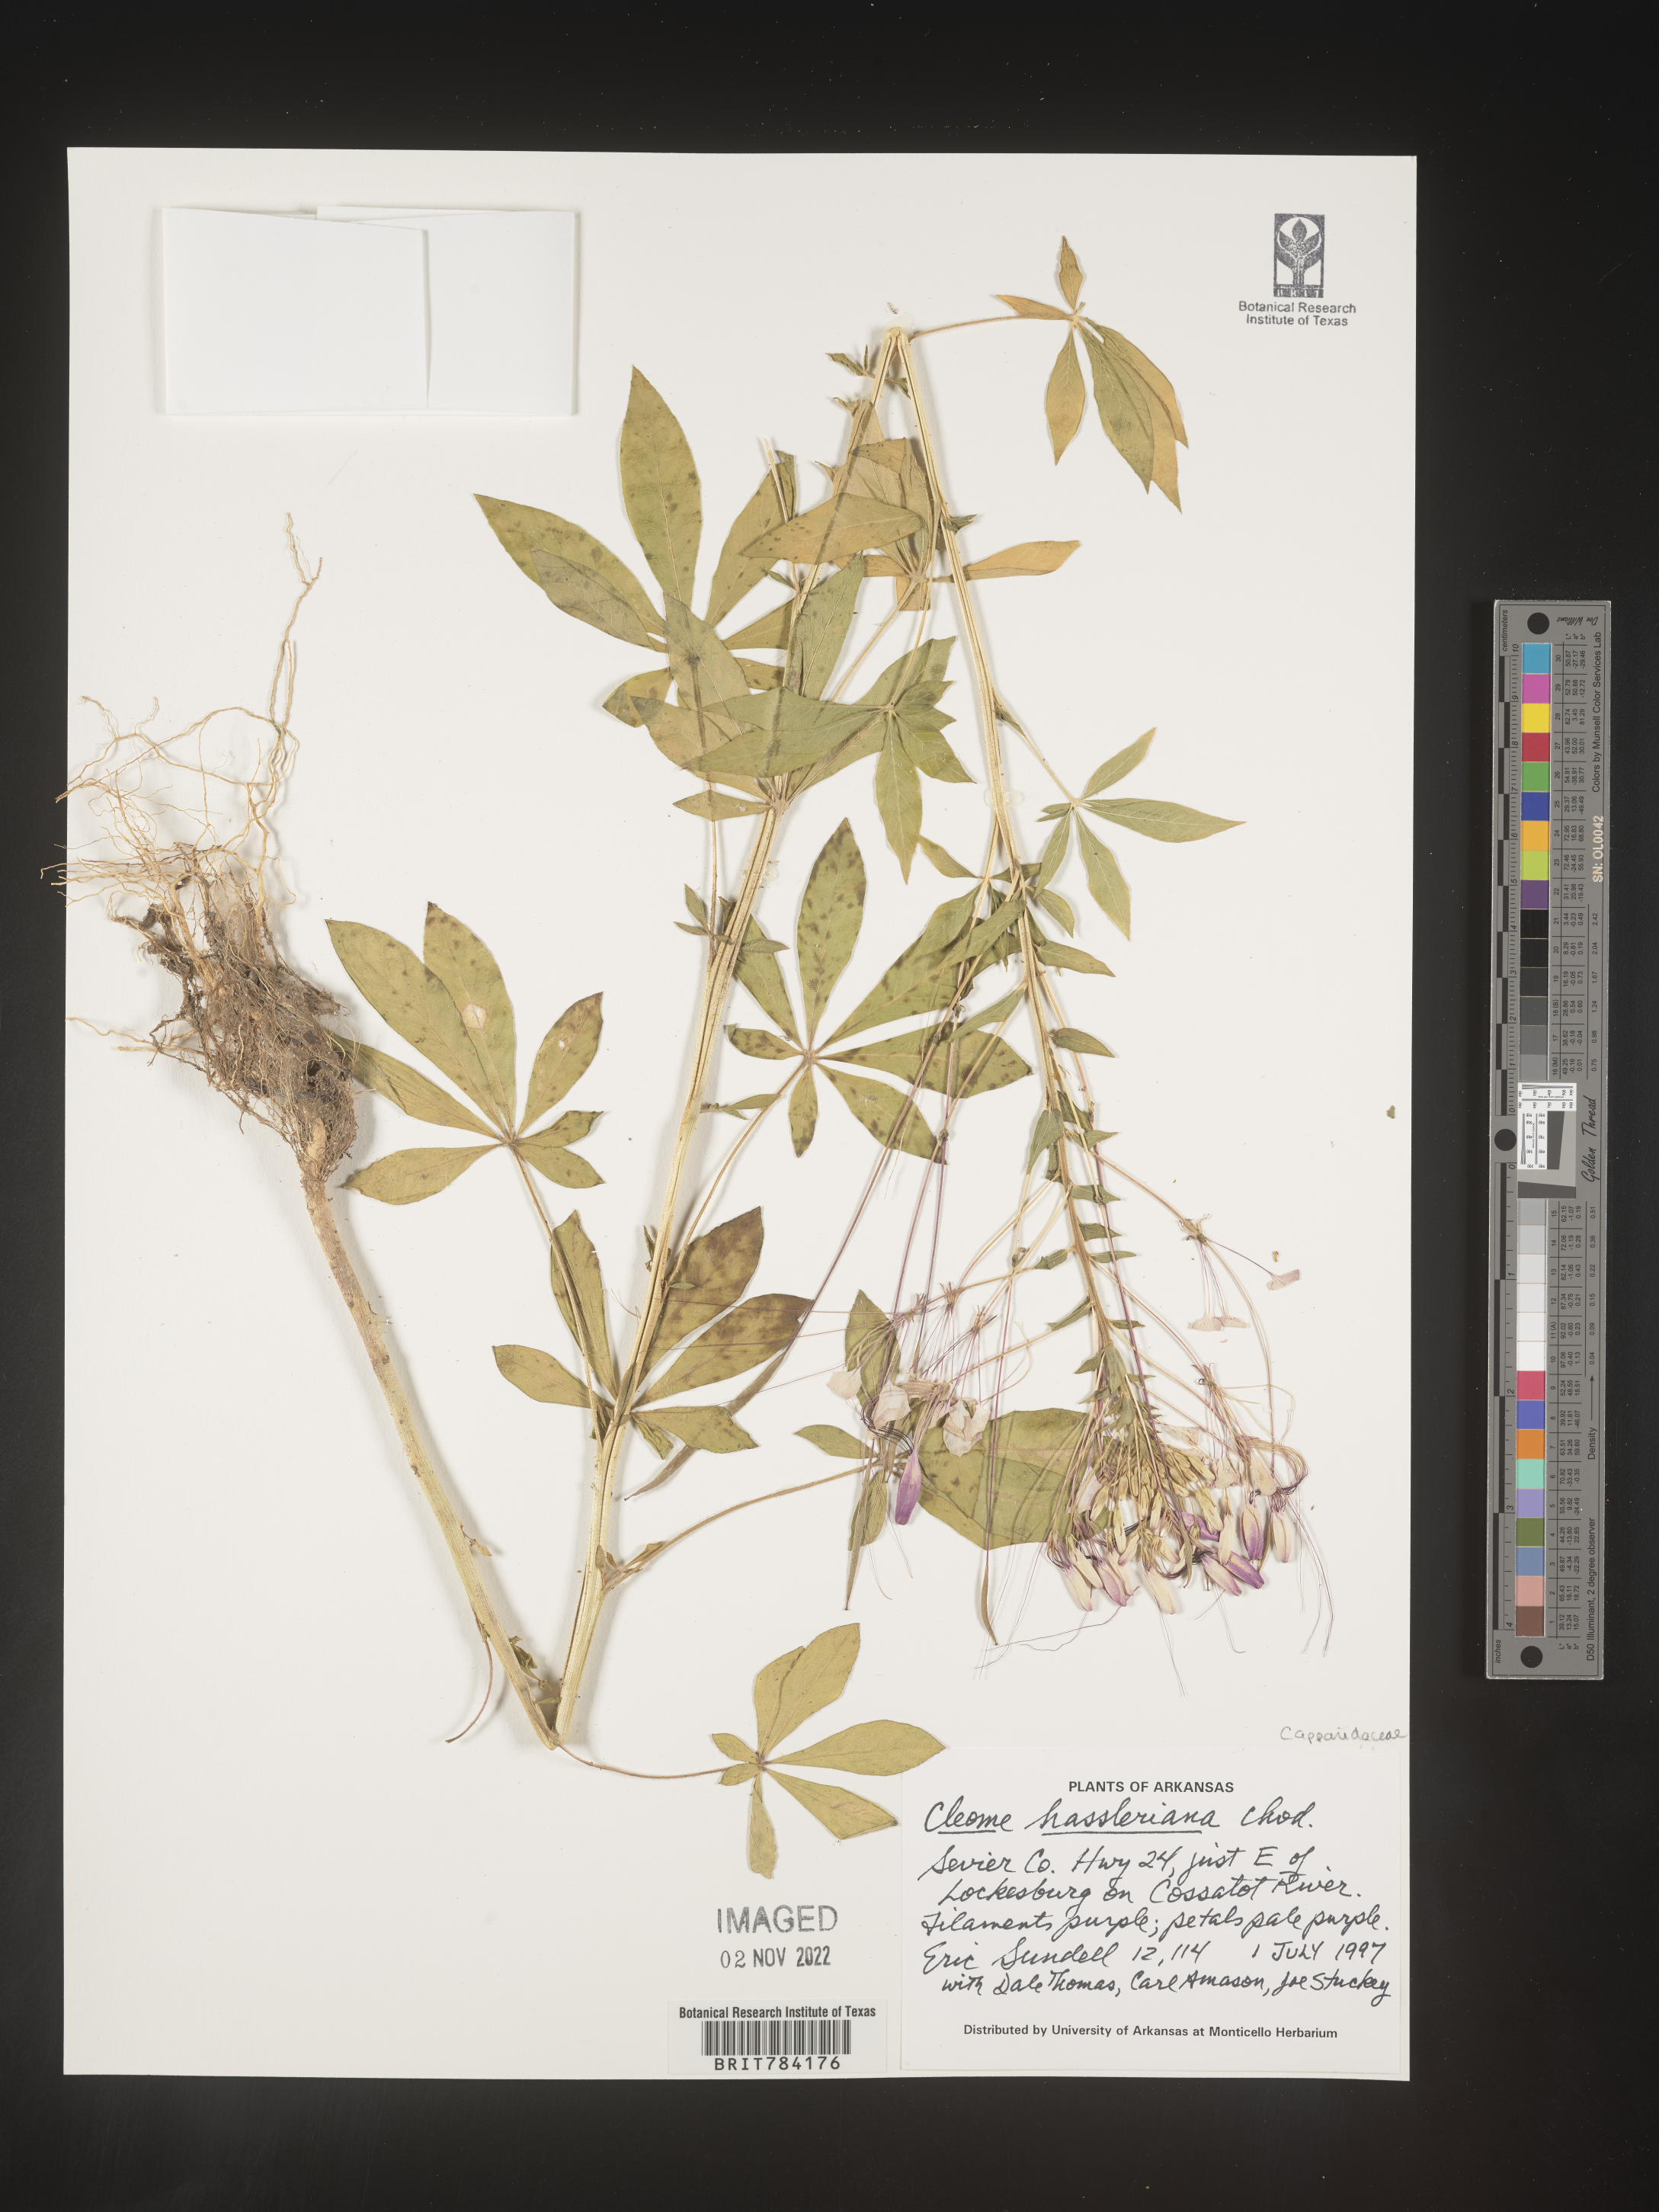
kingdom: Plantae
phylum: Tracheophyta
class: Magnoliopsida
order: Brassicales
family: Cleomaceae
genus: Cleome
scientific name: Cleome
